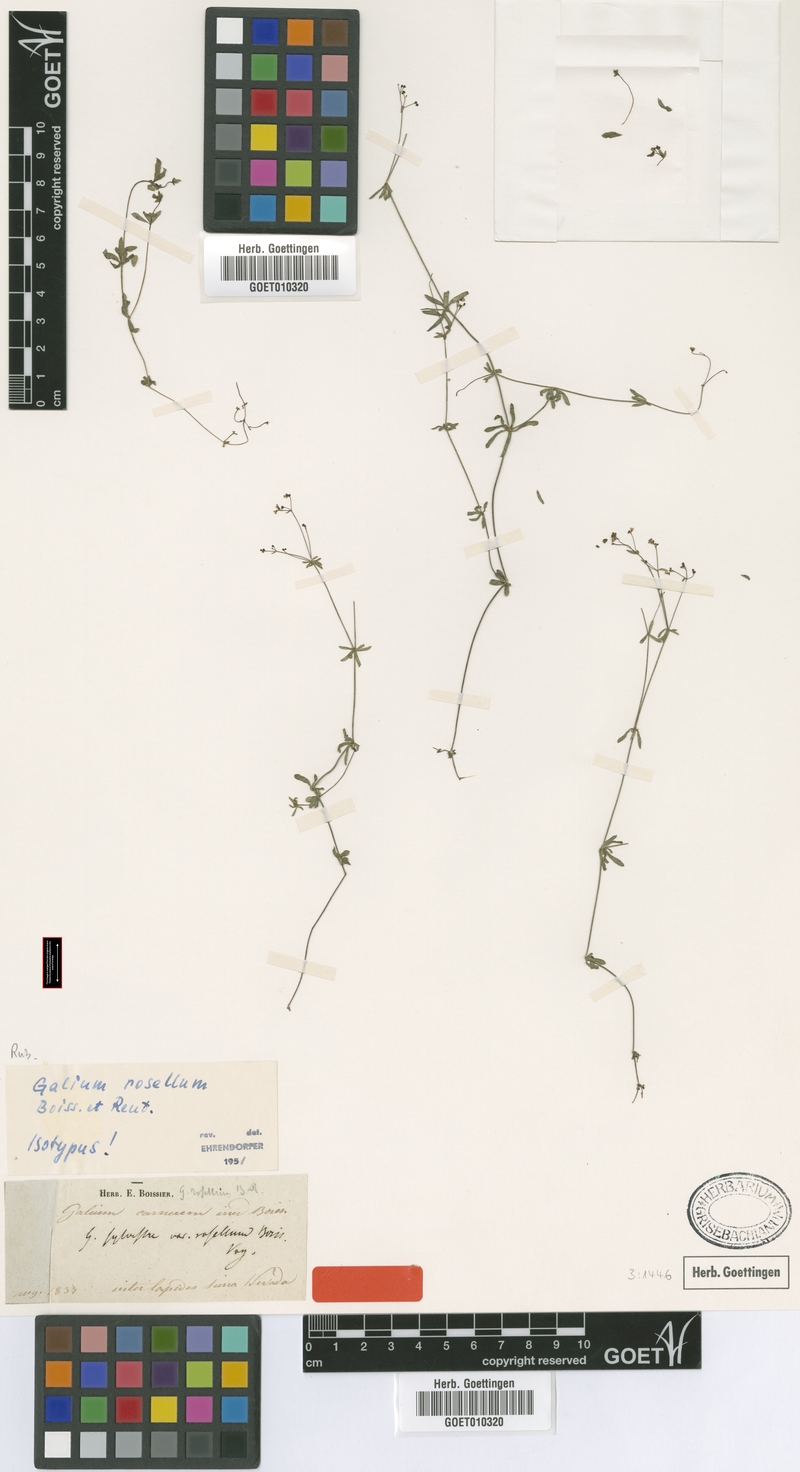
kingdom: Plantae
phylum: Tracheophyta
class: Magnoliopsida
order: Gentianales
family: Rubiaceae
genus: Galium
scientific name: Galium rosellum
